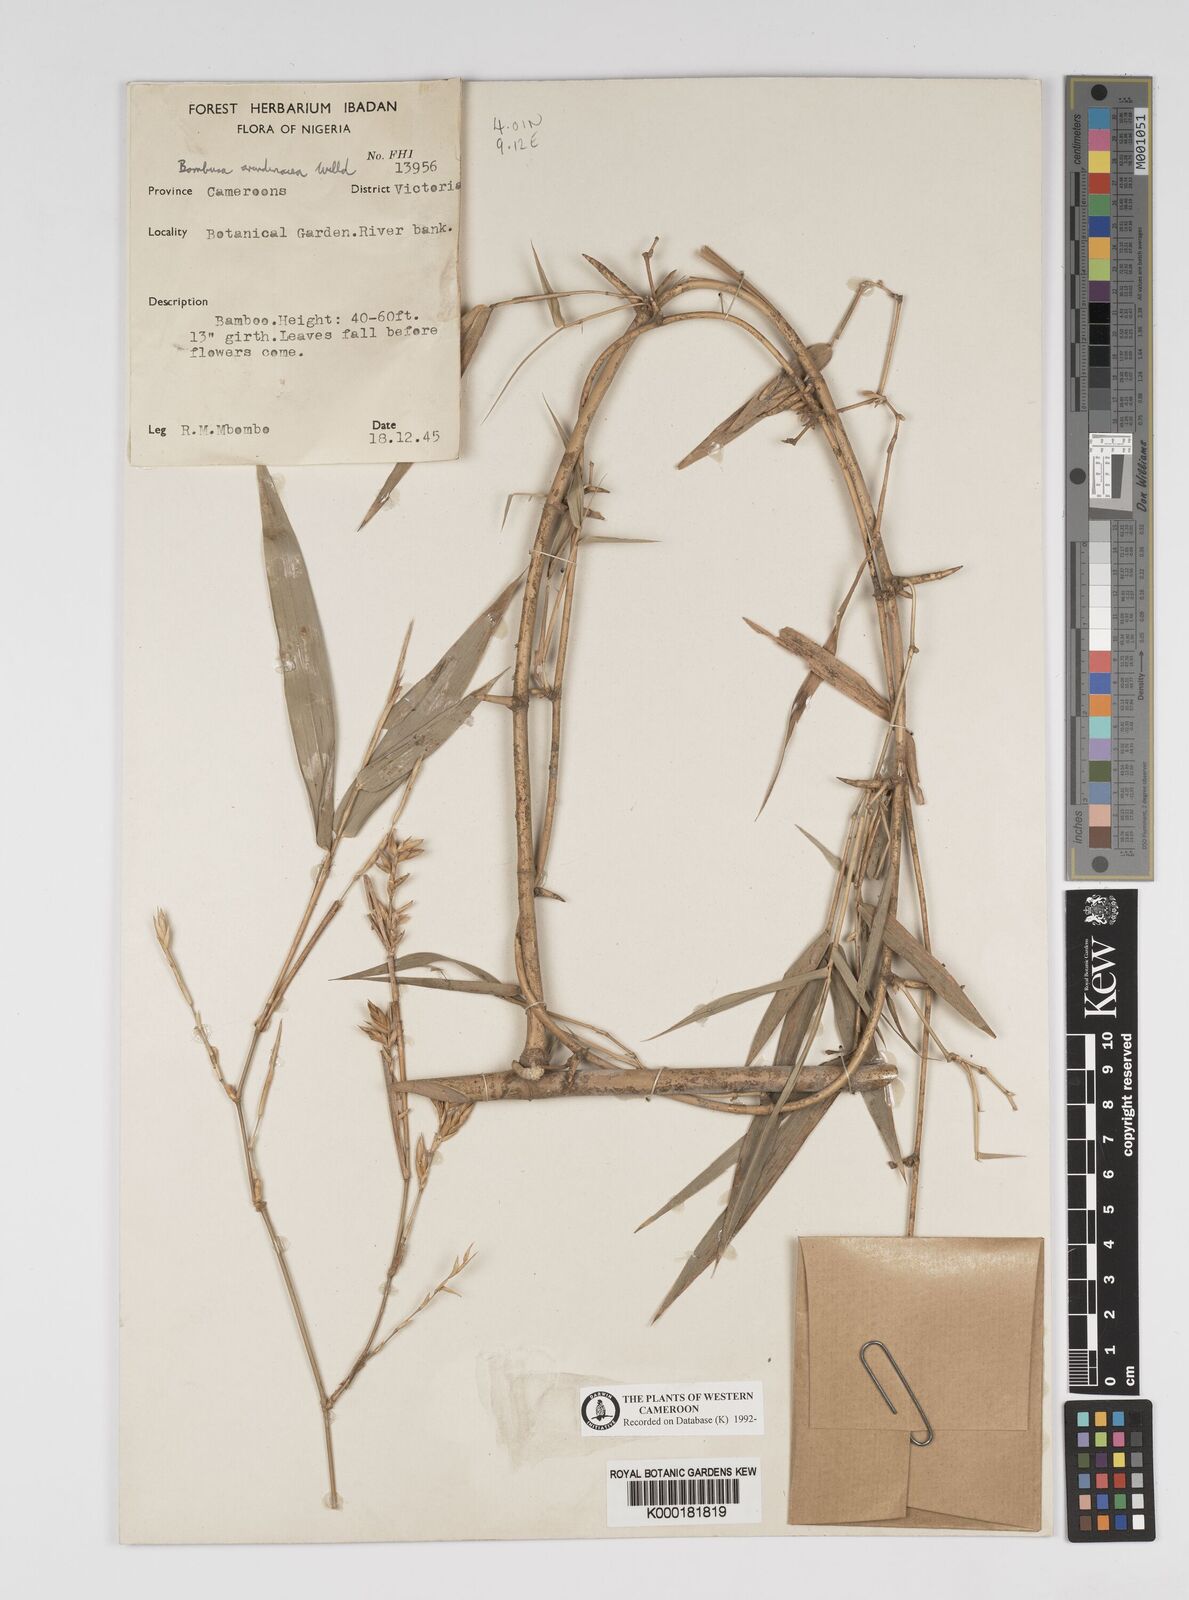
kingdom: Plantae
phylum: Tracheophyta
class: Liliopsida
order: Poales
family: Poaceae
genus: Bambusa
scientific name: Bambusa bambos
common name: Indian thorny bamboo
